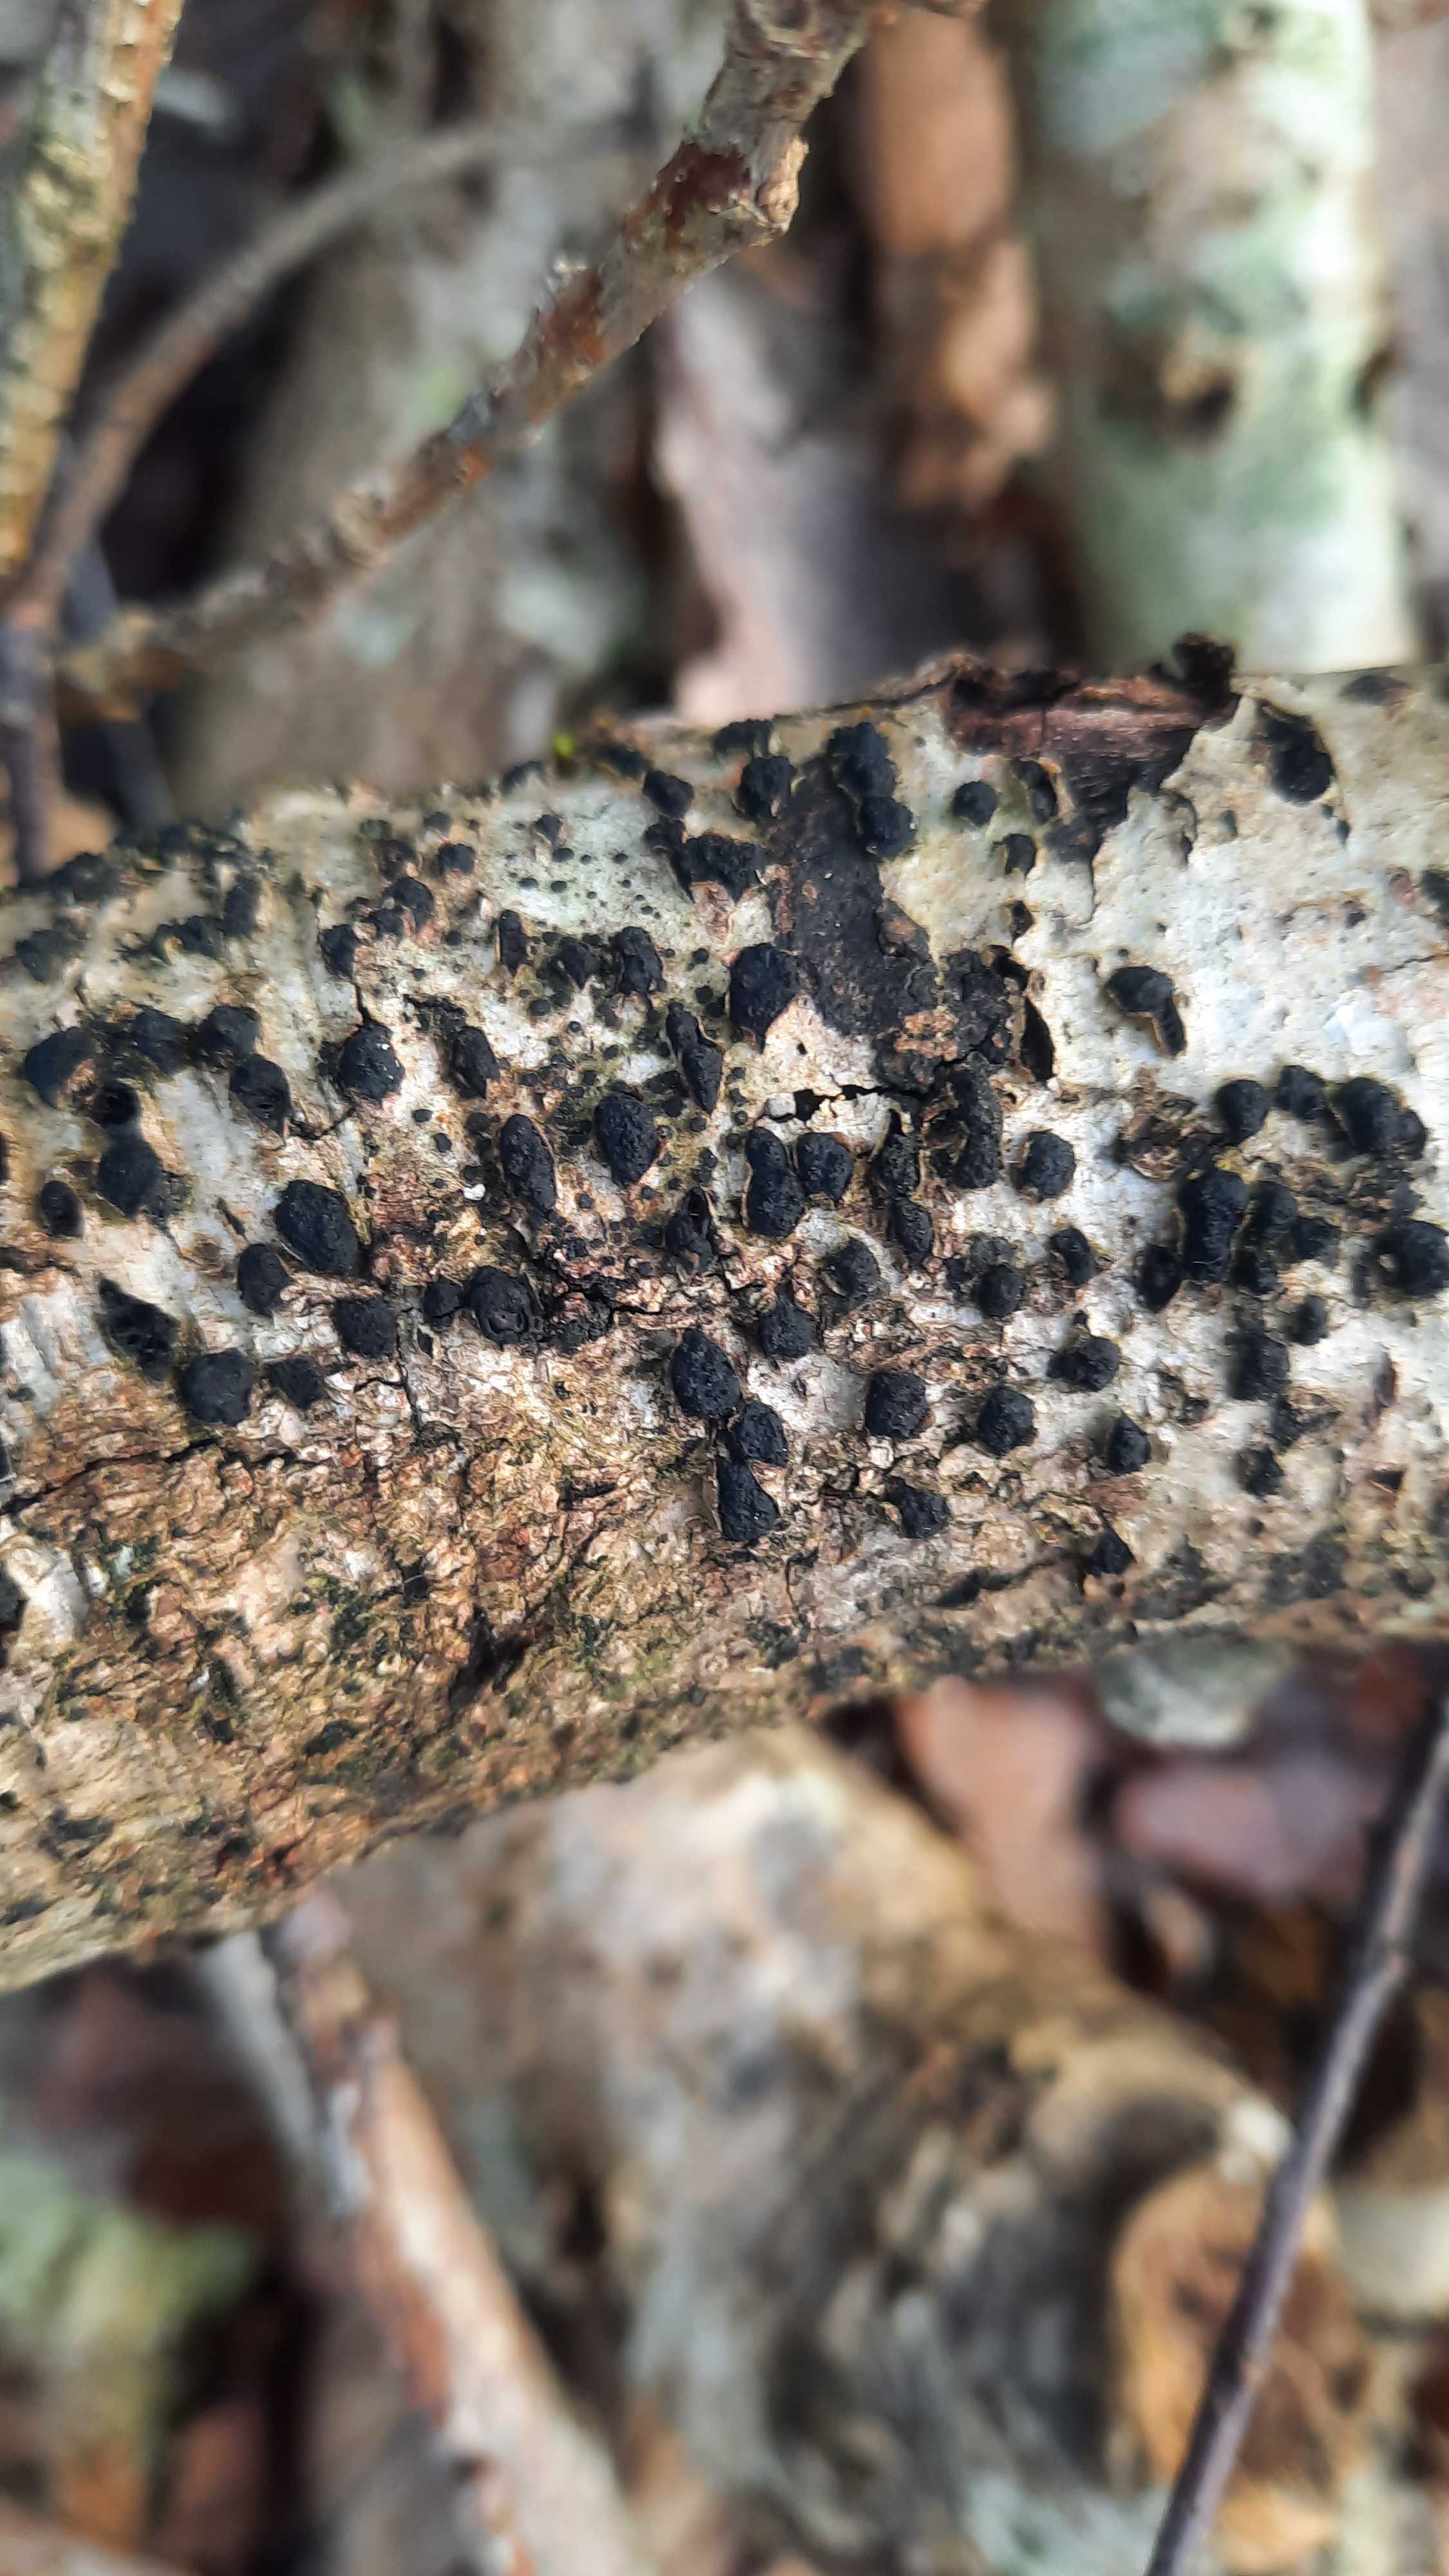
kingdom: Fungi
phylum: Ascomycota
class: Sordariomycetes
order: Xylariales
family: Diatrypaceae
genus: Diatrypella
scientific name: Diatrypella quercina
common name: ege-kulskorpe
